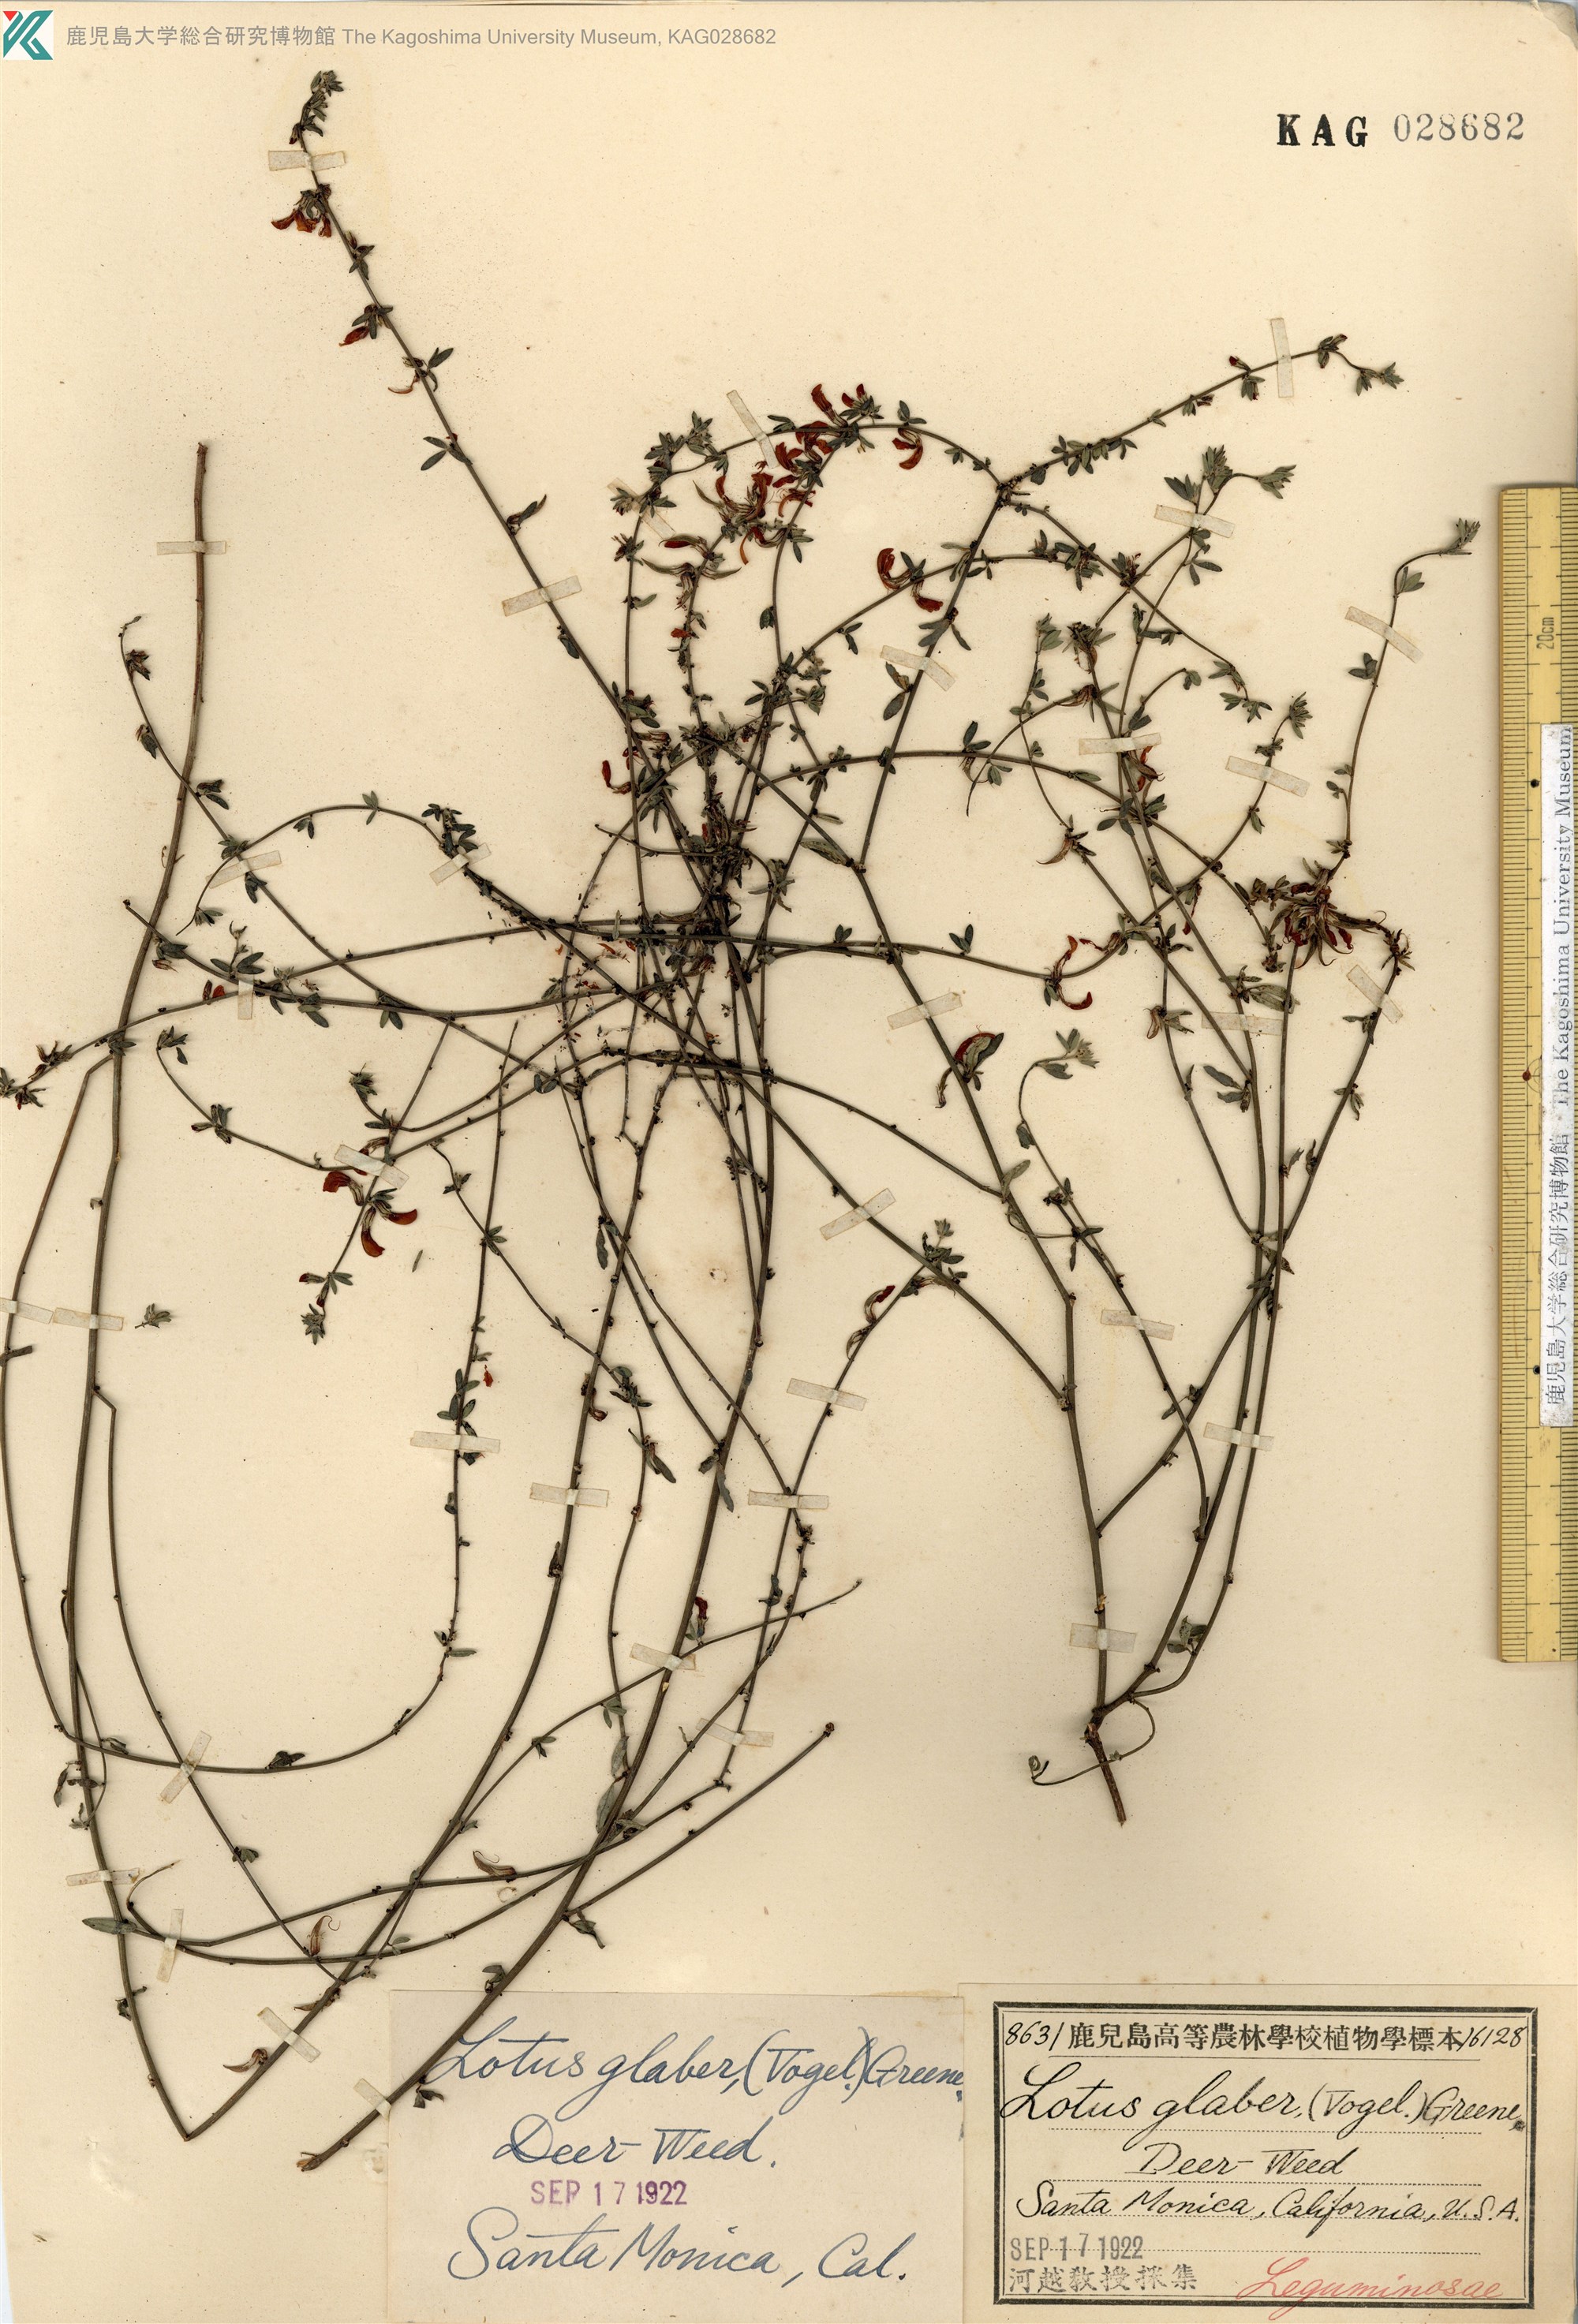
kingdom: Plantae
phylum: Tracheophyta
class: Magnoliopsida
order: Fabales
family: Fabaceae
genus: Acmispon
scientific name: Acmispon glaber
